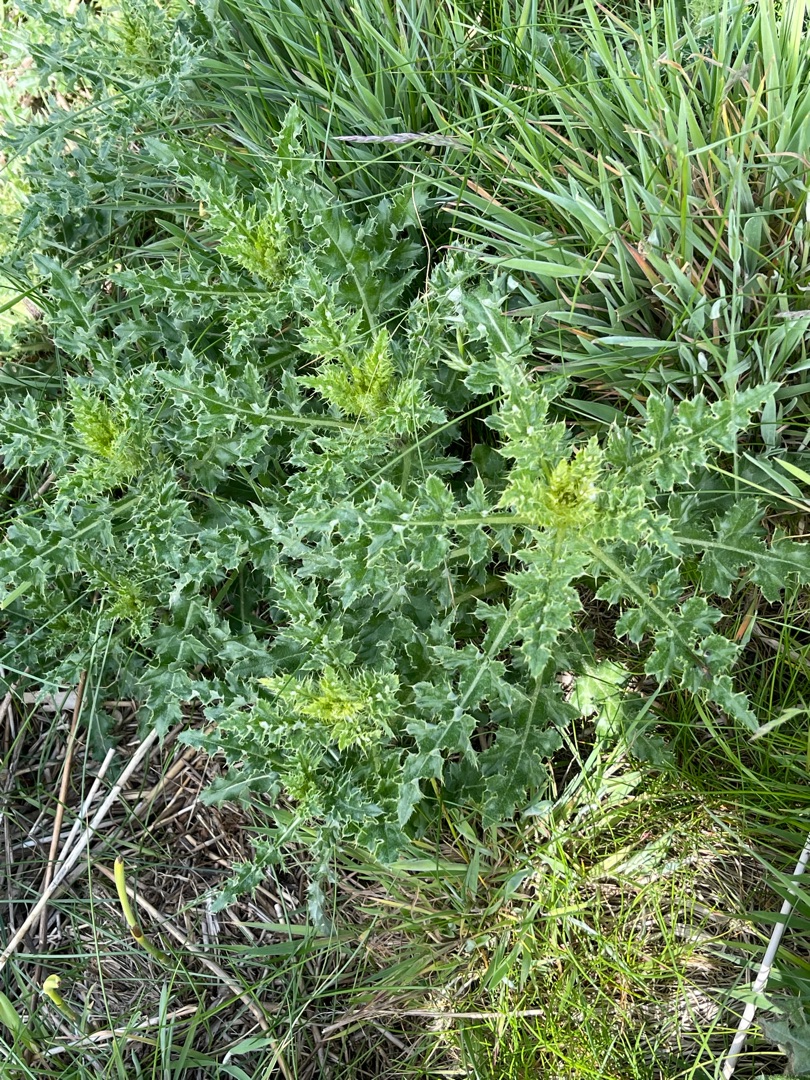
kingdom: Plantae
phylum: Tracheophyta
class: Magnoliopsida
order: Asterales
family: Asteraceae
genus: Cirsium
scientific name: Cirsium arvense
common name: Ager-tidsel
